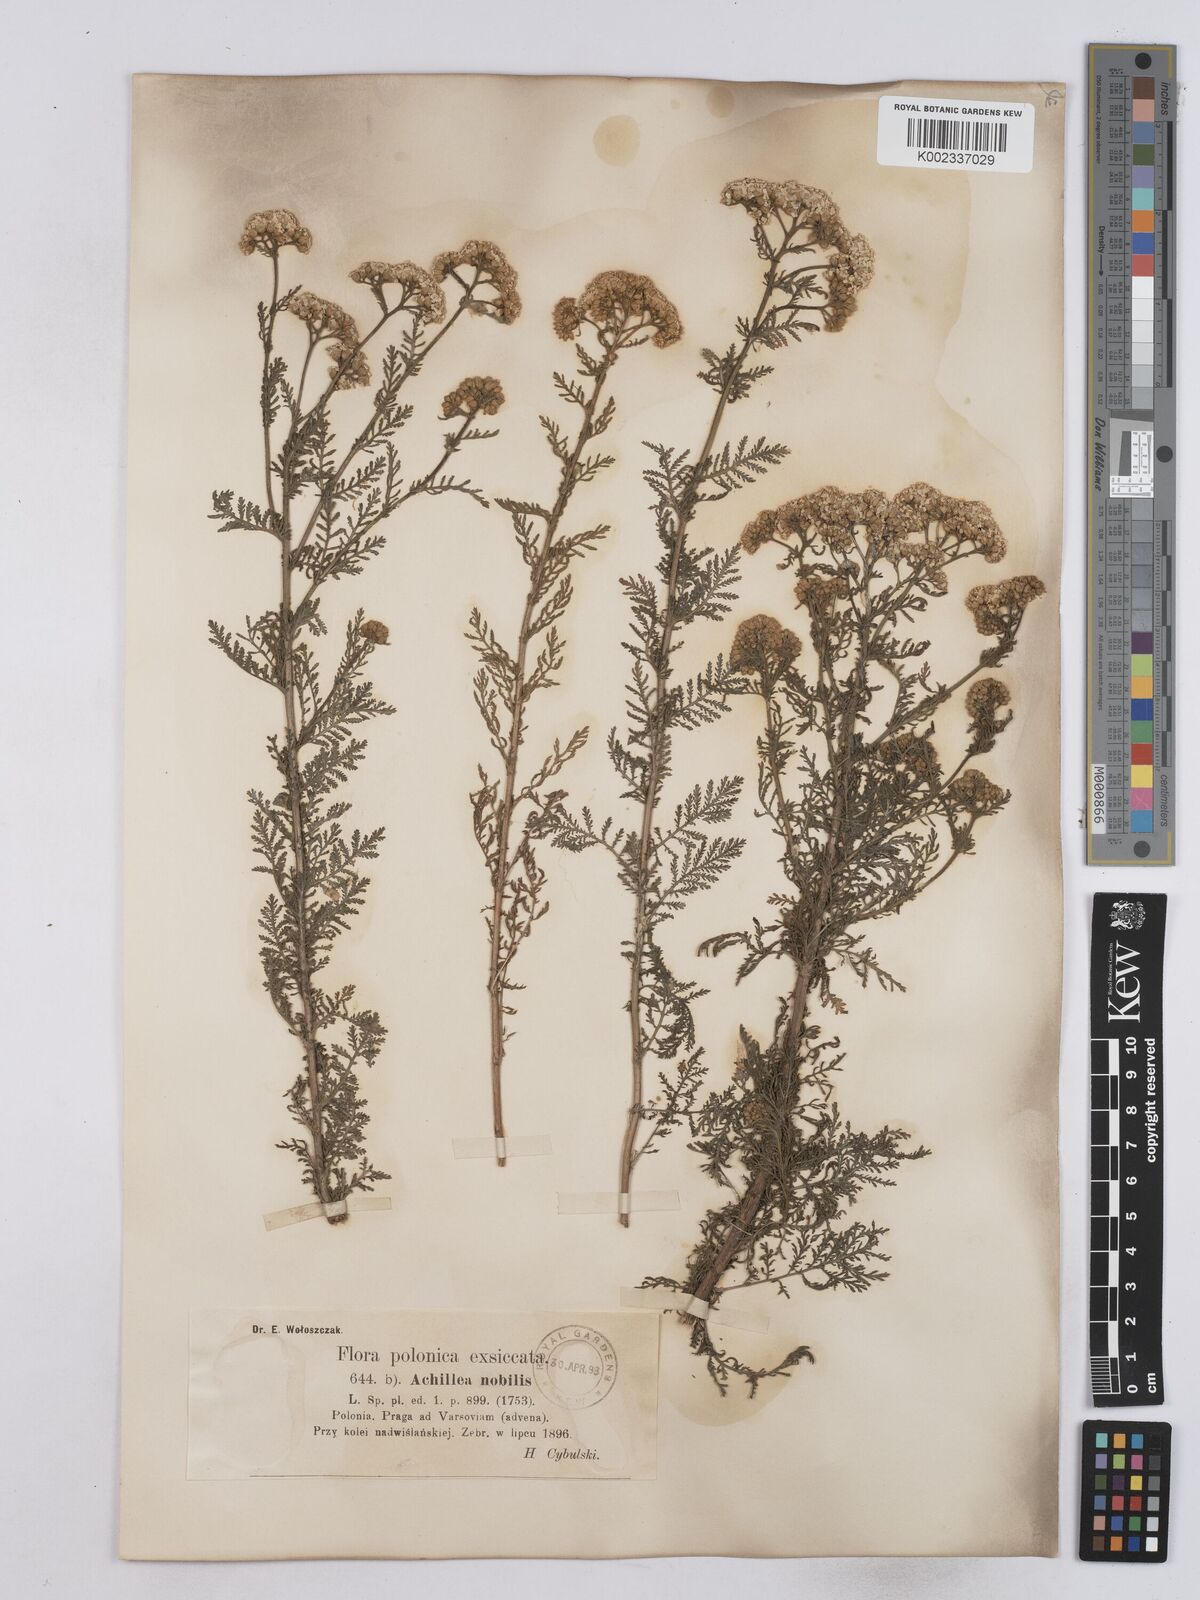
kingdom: Plantae
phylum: Tracheophyta
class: Magnoliopsida
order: Asterales
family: Asteraceae
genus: Achillea
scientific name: Achillea nobilis
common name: Noble yarrow
